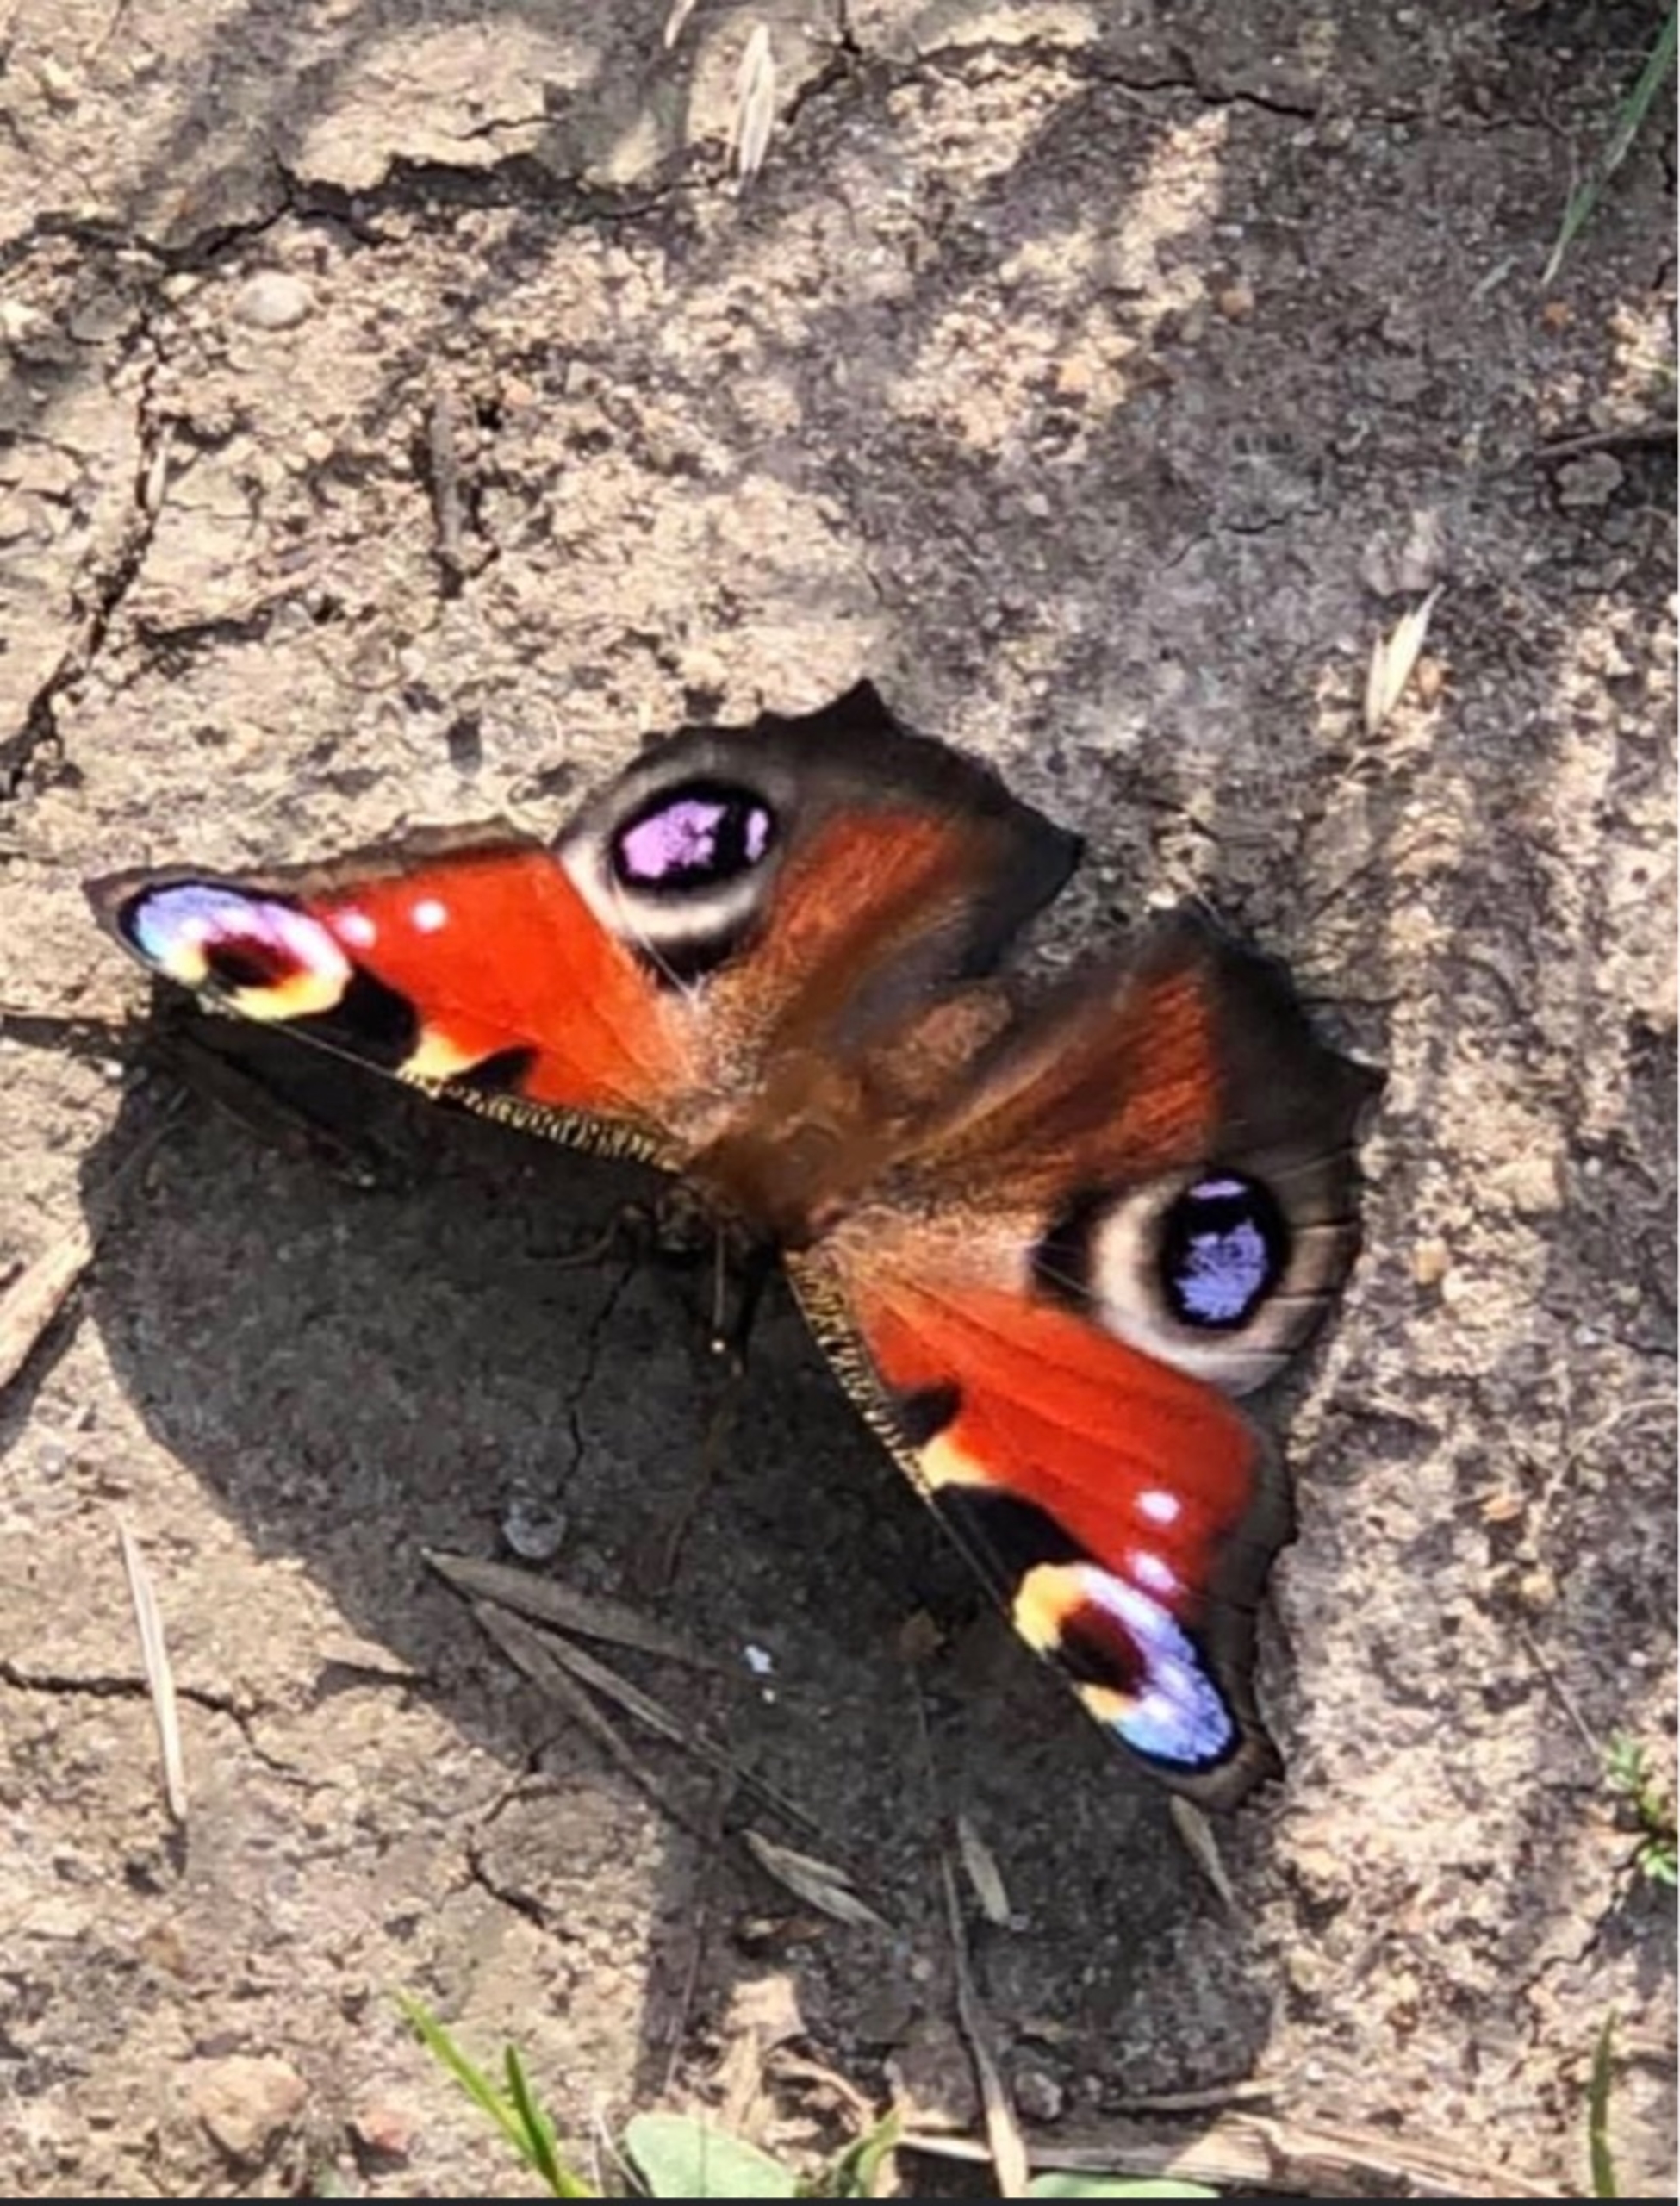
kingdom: Animalia
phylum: Arthropoda
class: Insecta
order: Lepidoptera
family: Nymphalidae
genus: Aglais
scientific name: Aglais io
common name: Dagpåfugleøje
